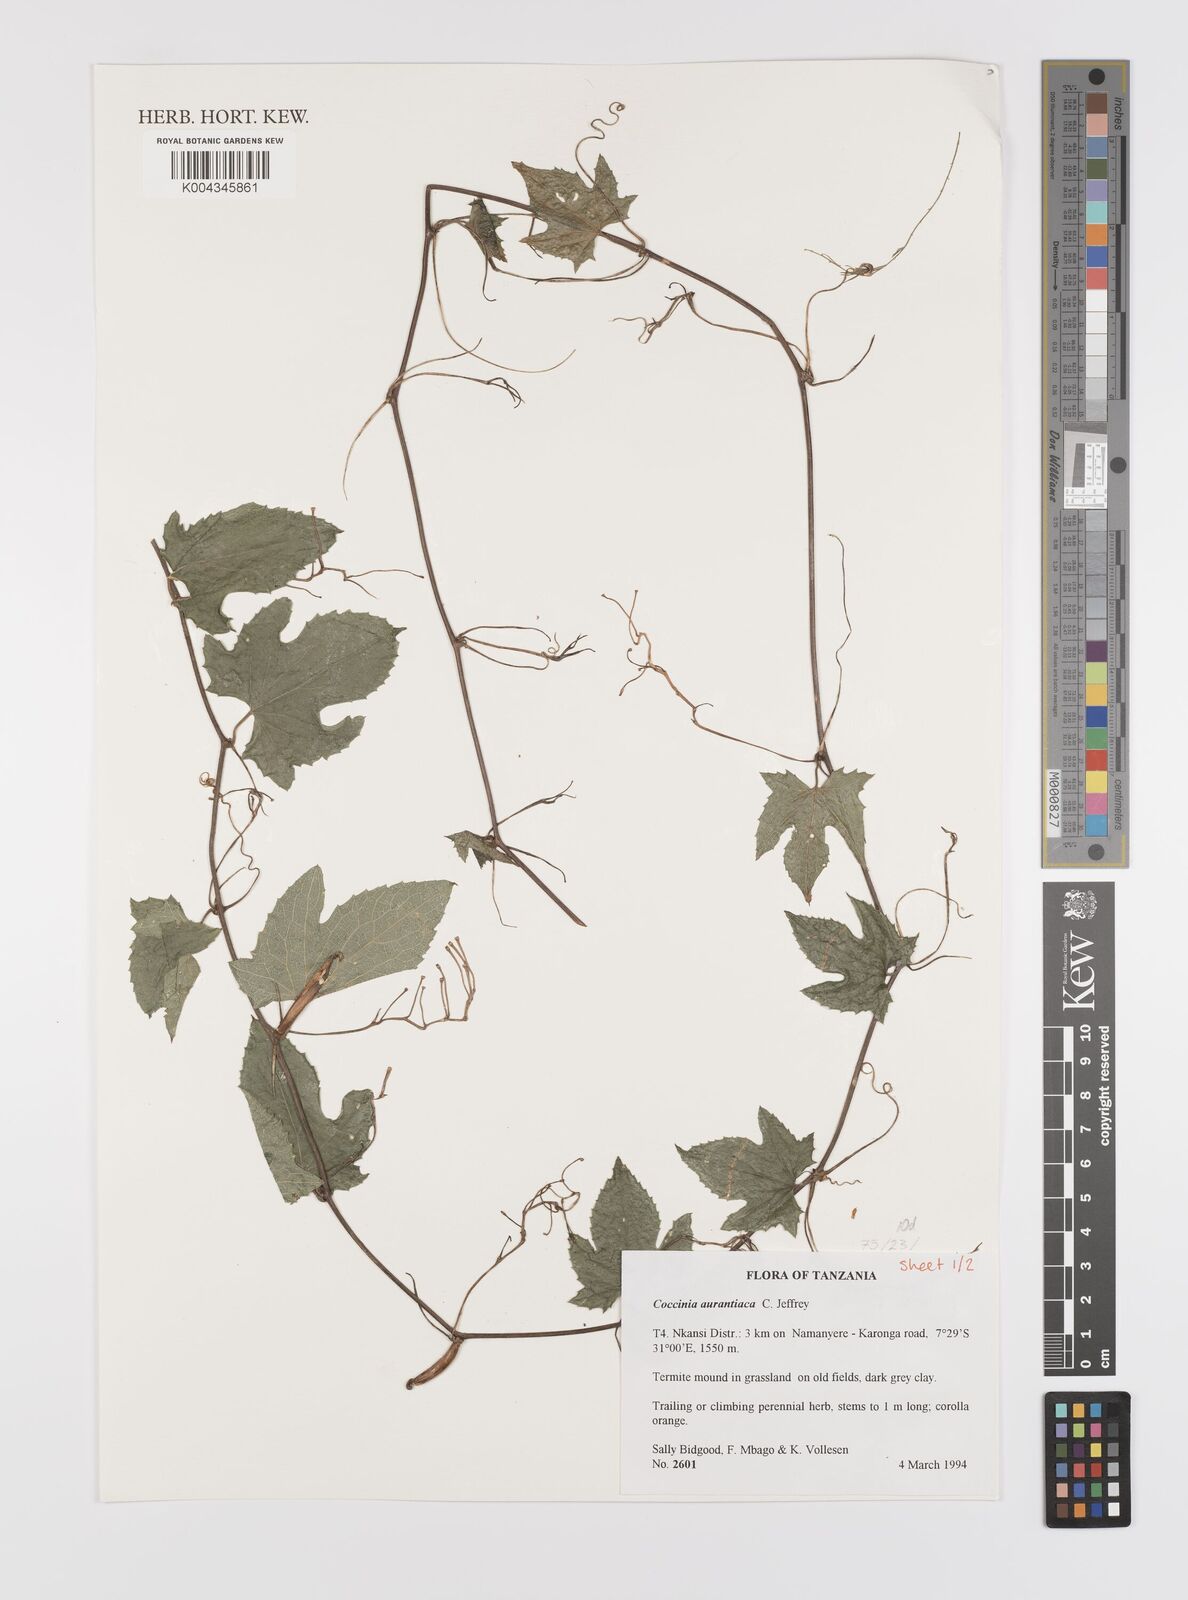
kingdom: Plantae
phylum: Tracheophyta
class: Magnoliopsida
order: Cucurbitales
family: Cucurbitaceae
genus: Coccinia
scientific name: Coccinia adoensis
